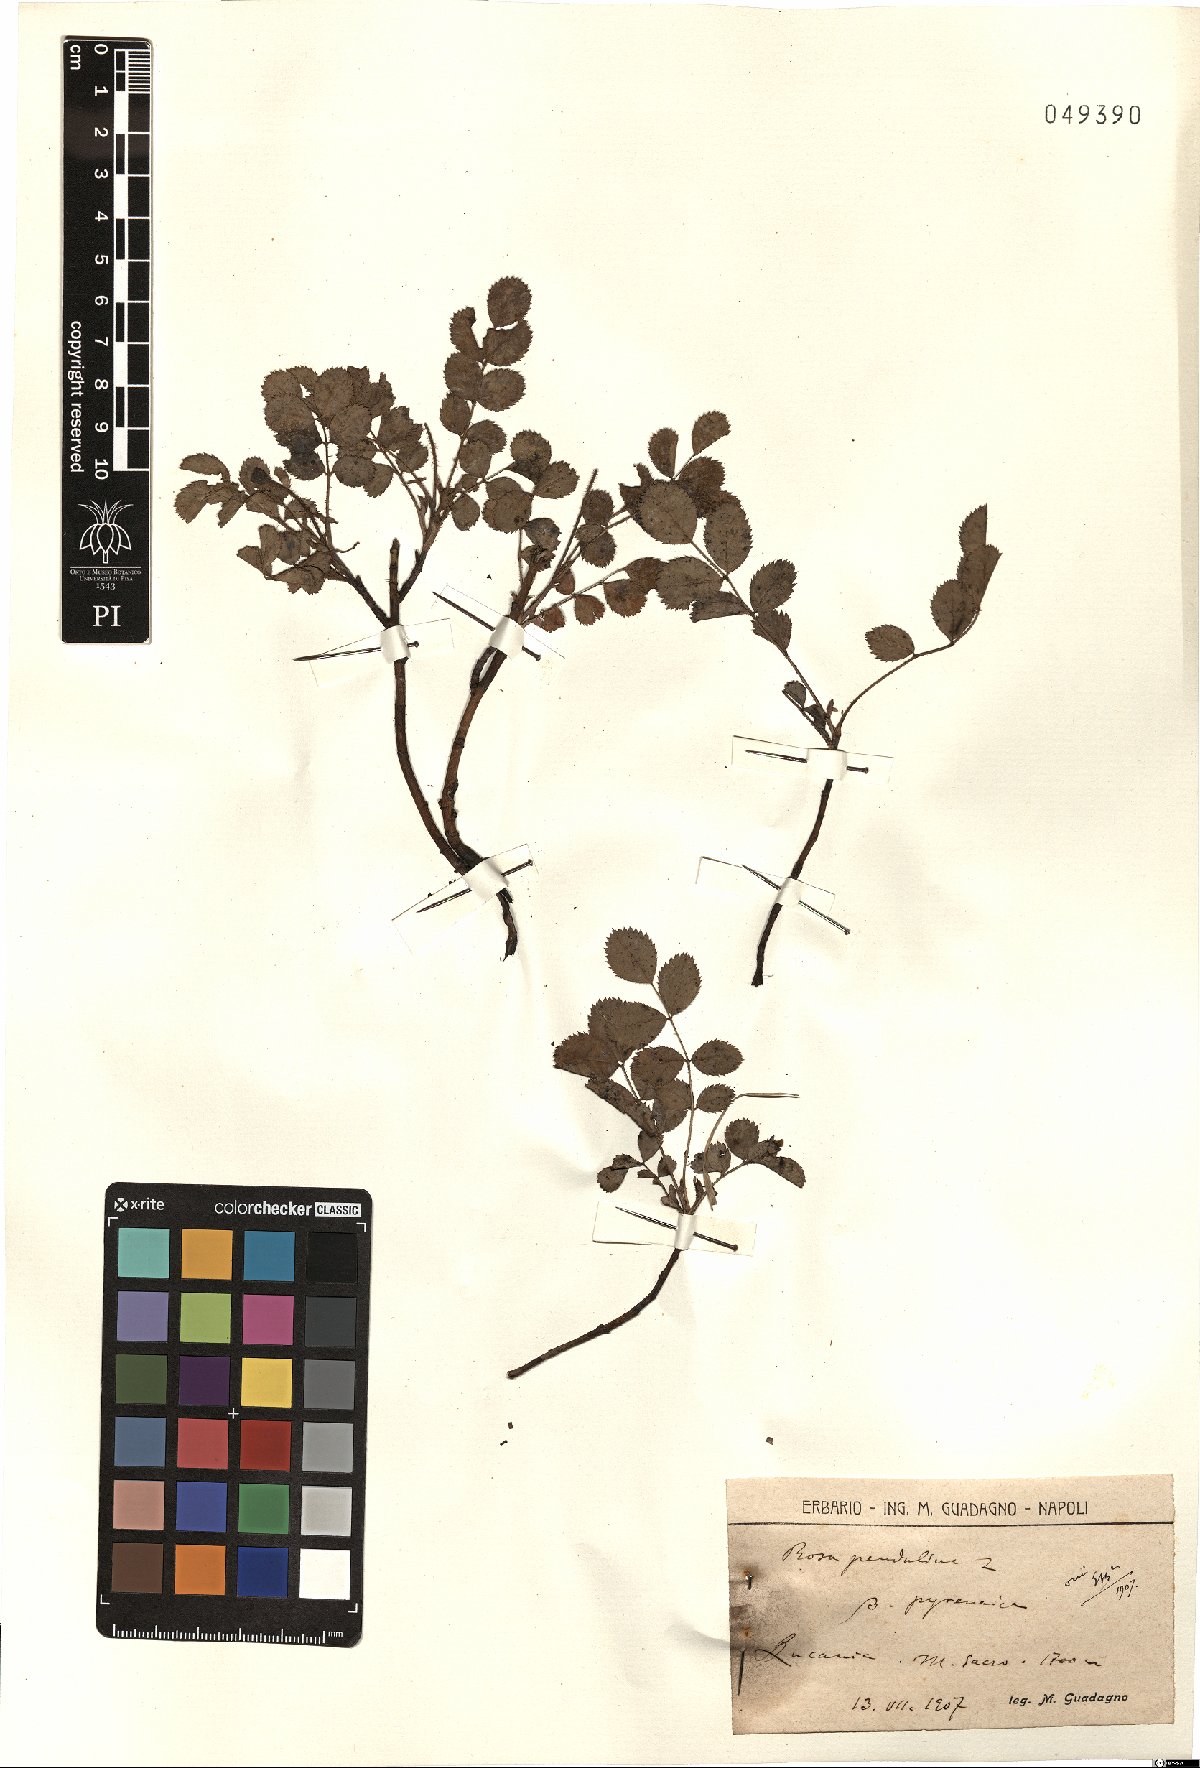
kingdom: Plantae
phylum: Tracheophyta
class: Magnoliopsida
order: Rosales
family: Rosaceae
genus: Rosa
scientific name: Rosa pendulina
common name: Alpine rose
